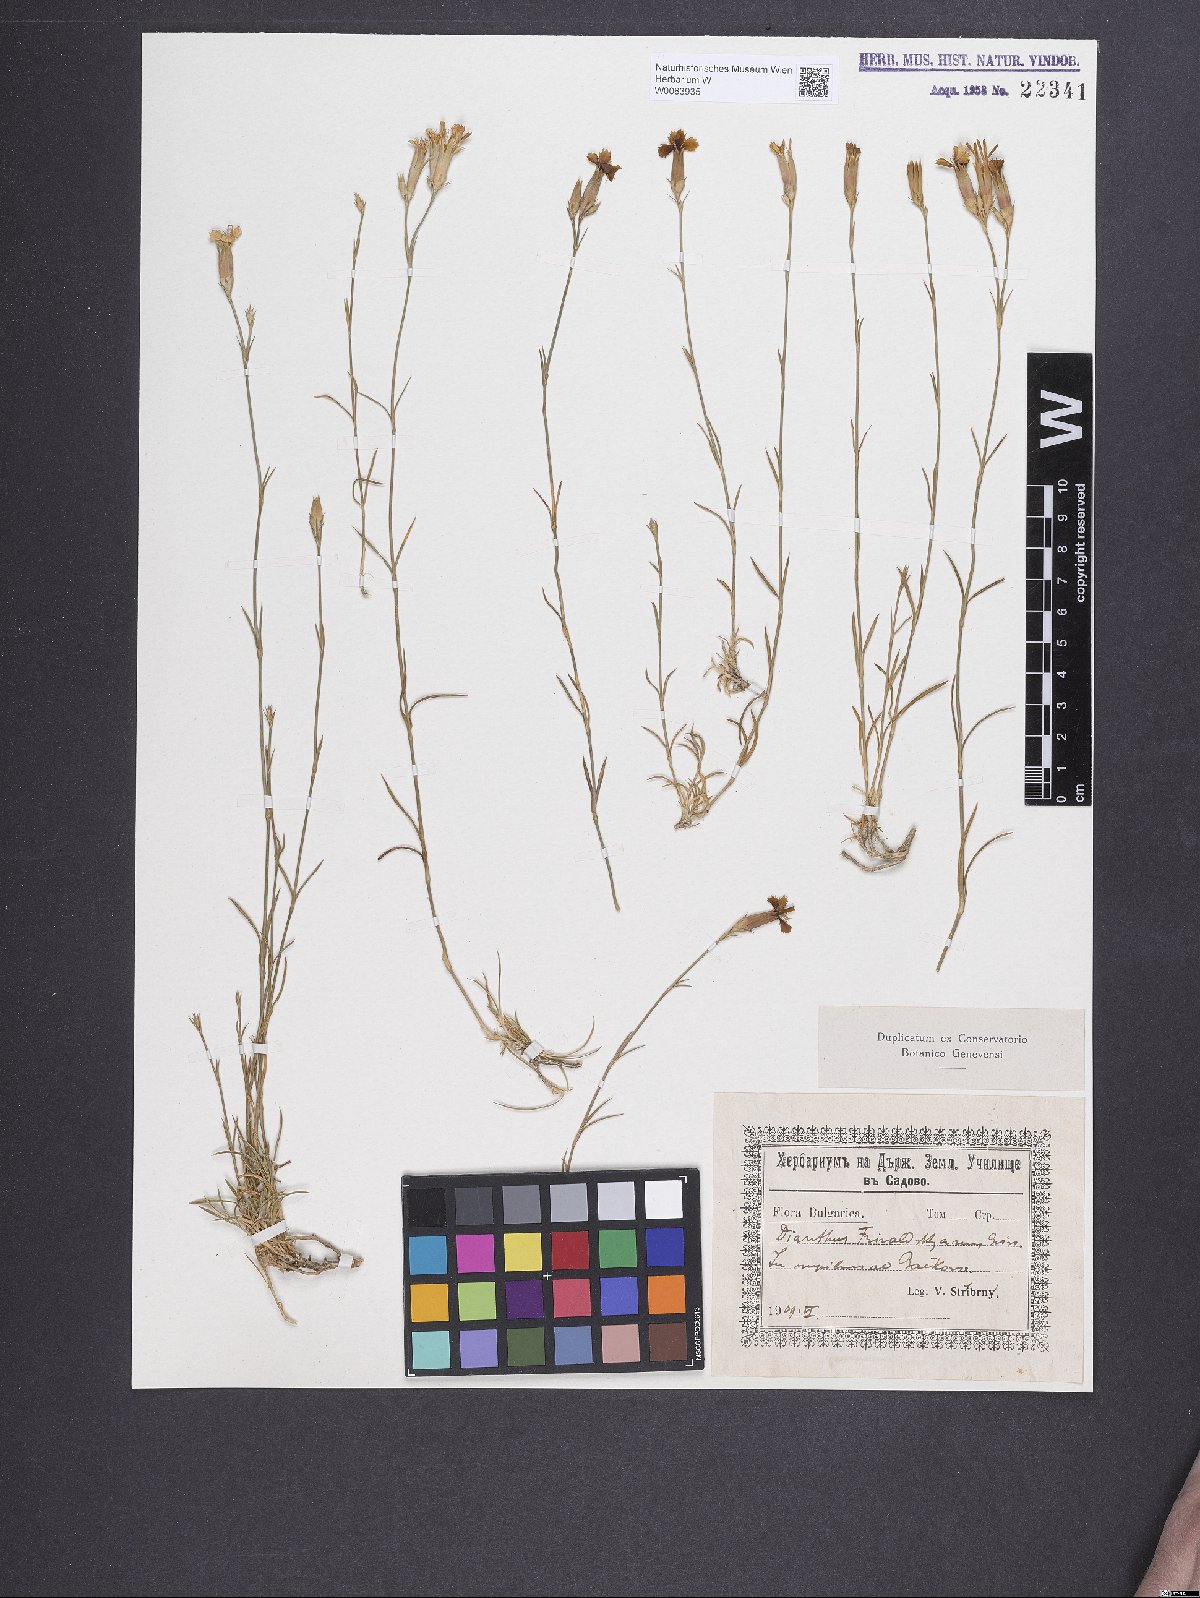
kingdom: Plantae
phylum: Tracheophyta
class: Magnoliopsida
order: Caryophyllales
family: Caryophyllaceae
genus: Dianthus
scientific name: Dianthus gracilis
